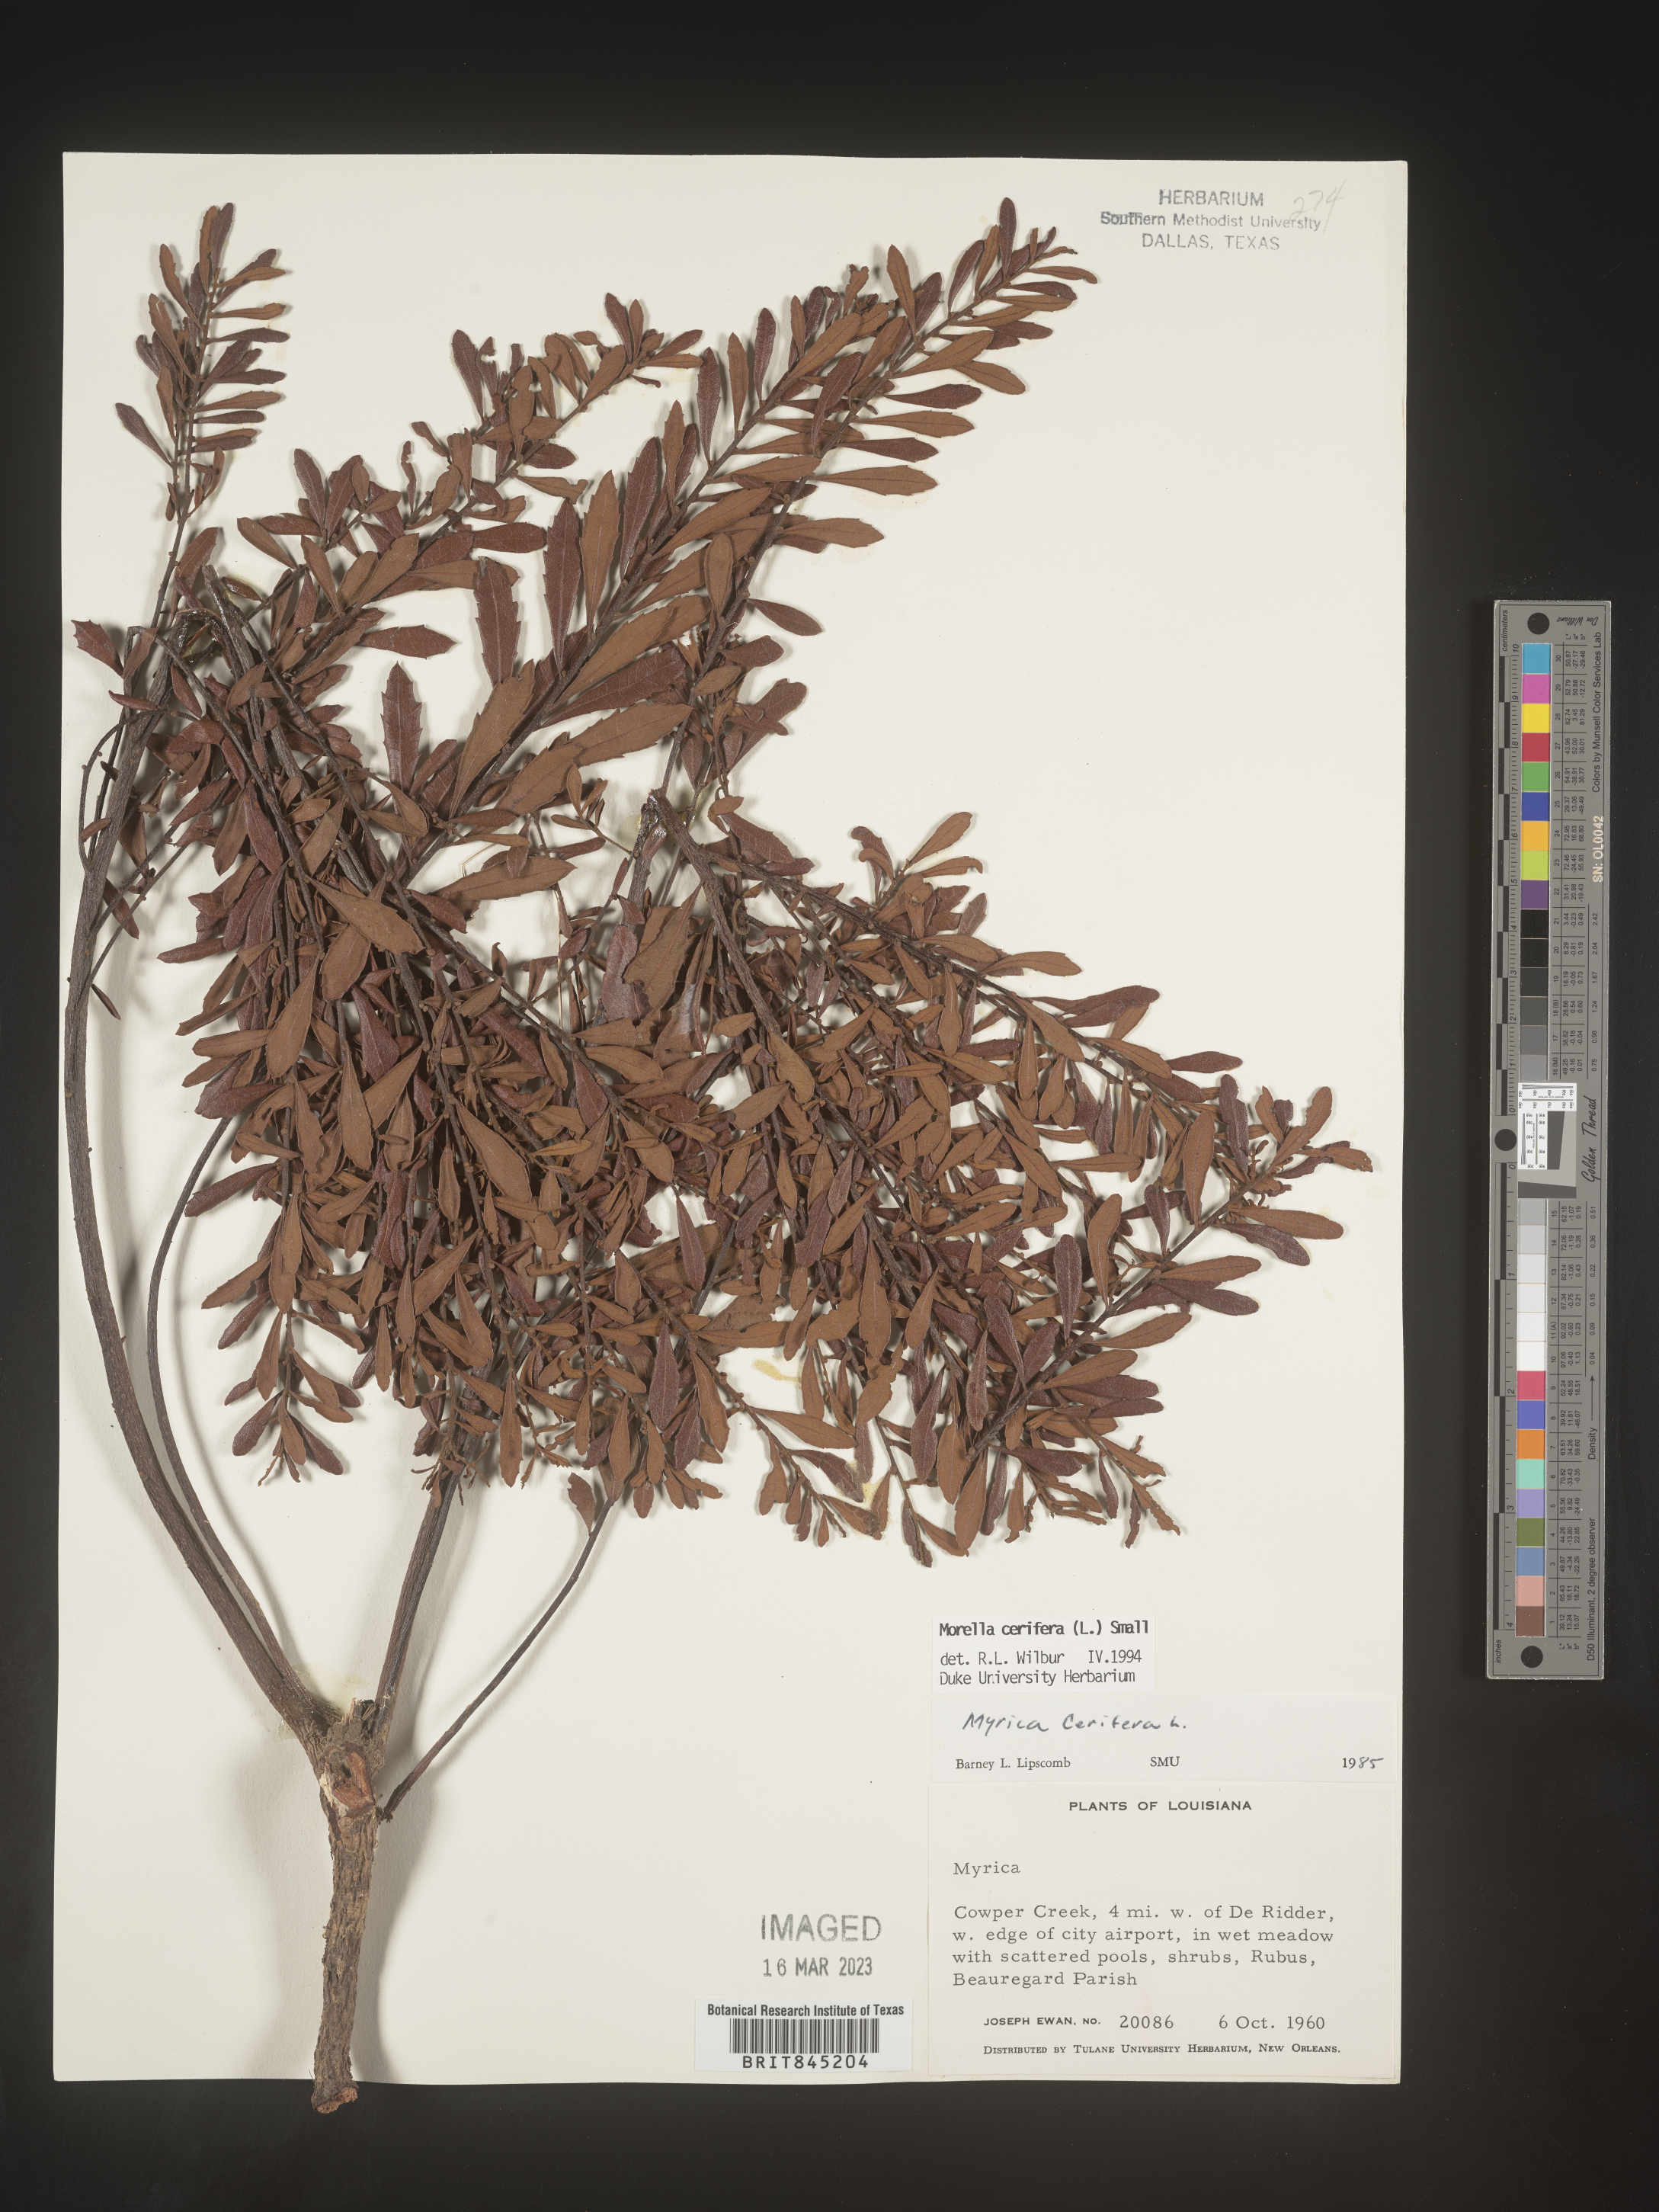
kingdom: Plantae
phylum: Tracheophyta
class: Magnoliopsida
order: Fagales
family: Myricaceae
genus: Morella
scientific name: Morella cerifera
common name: Wax myrtle
